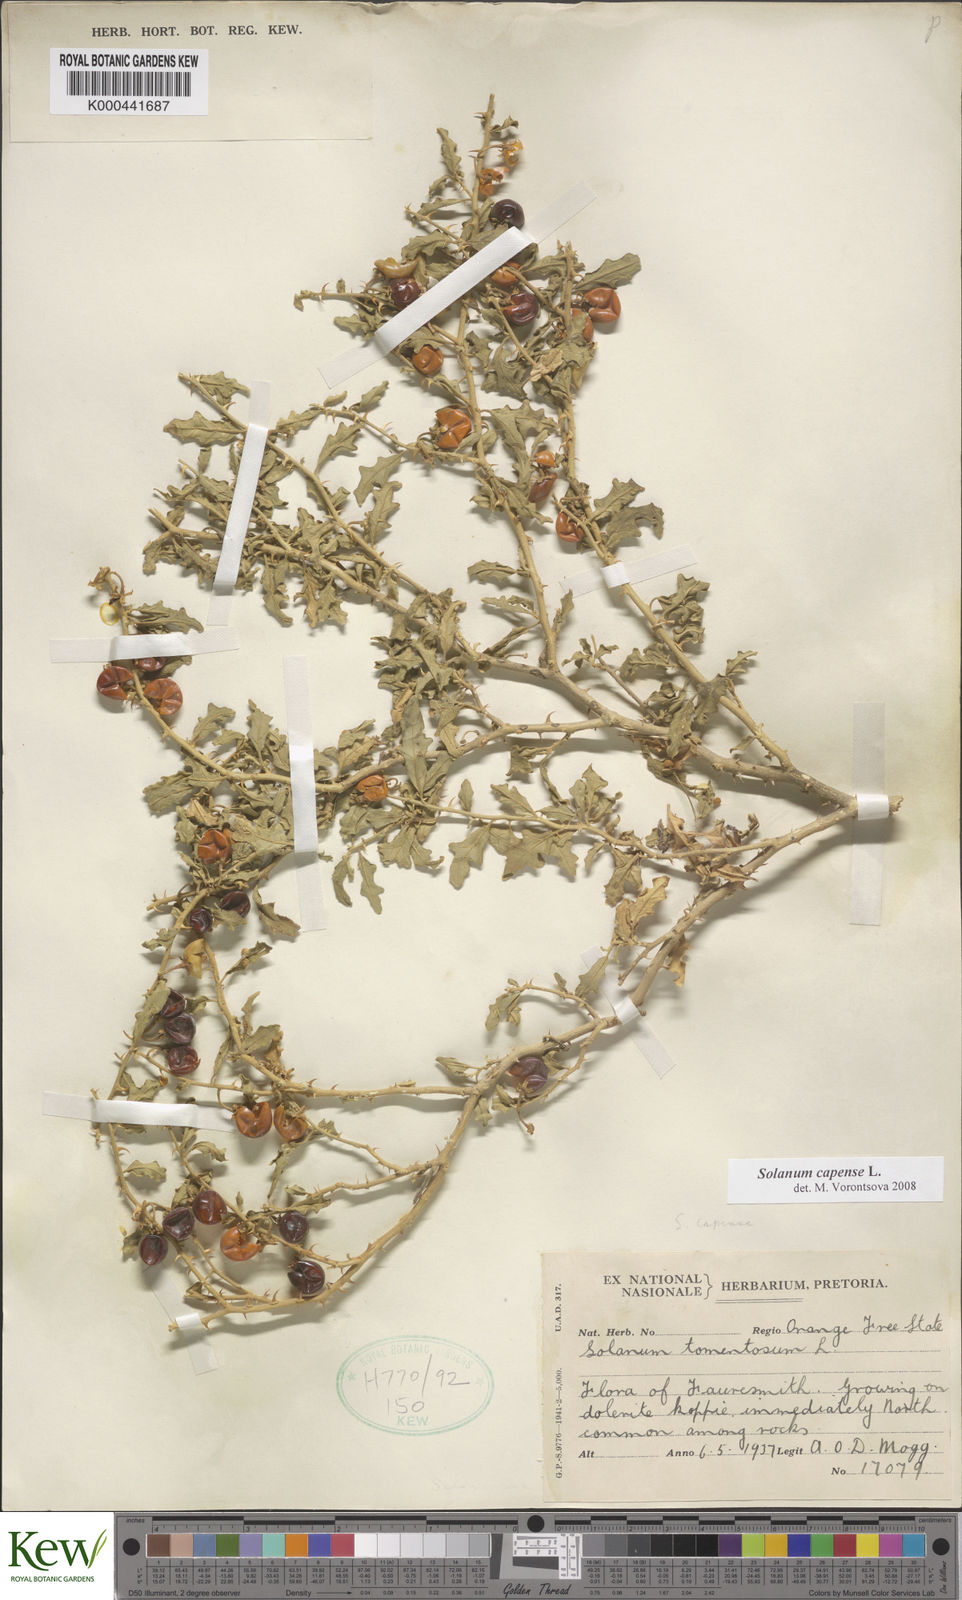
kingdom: Plantae
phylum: Tracheophyta
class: Magnoliopsida
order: Solanales
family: Solanaceae
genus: Solanum
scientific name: Solanum capense
